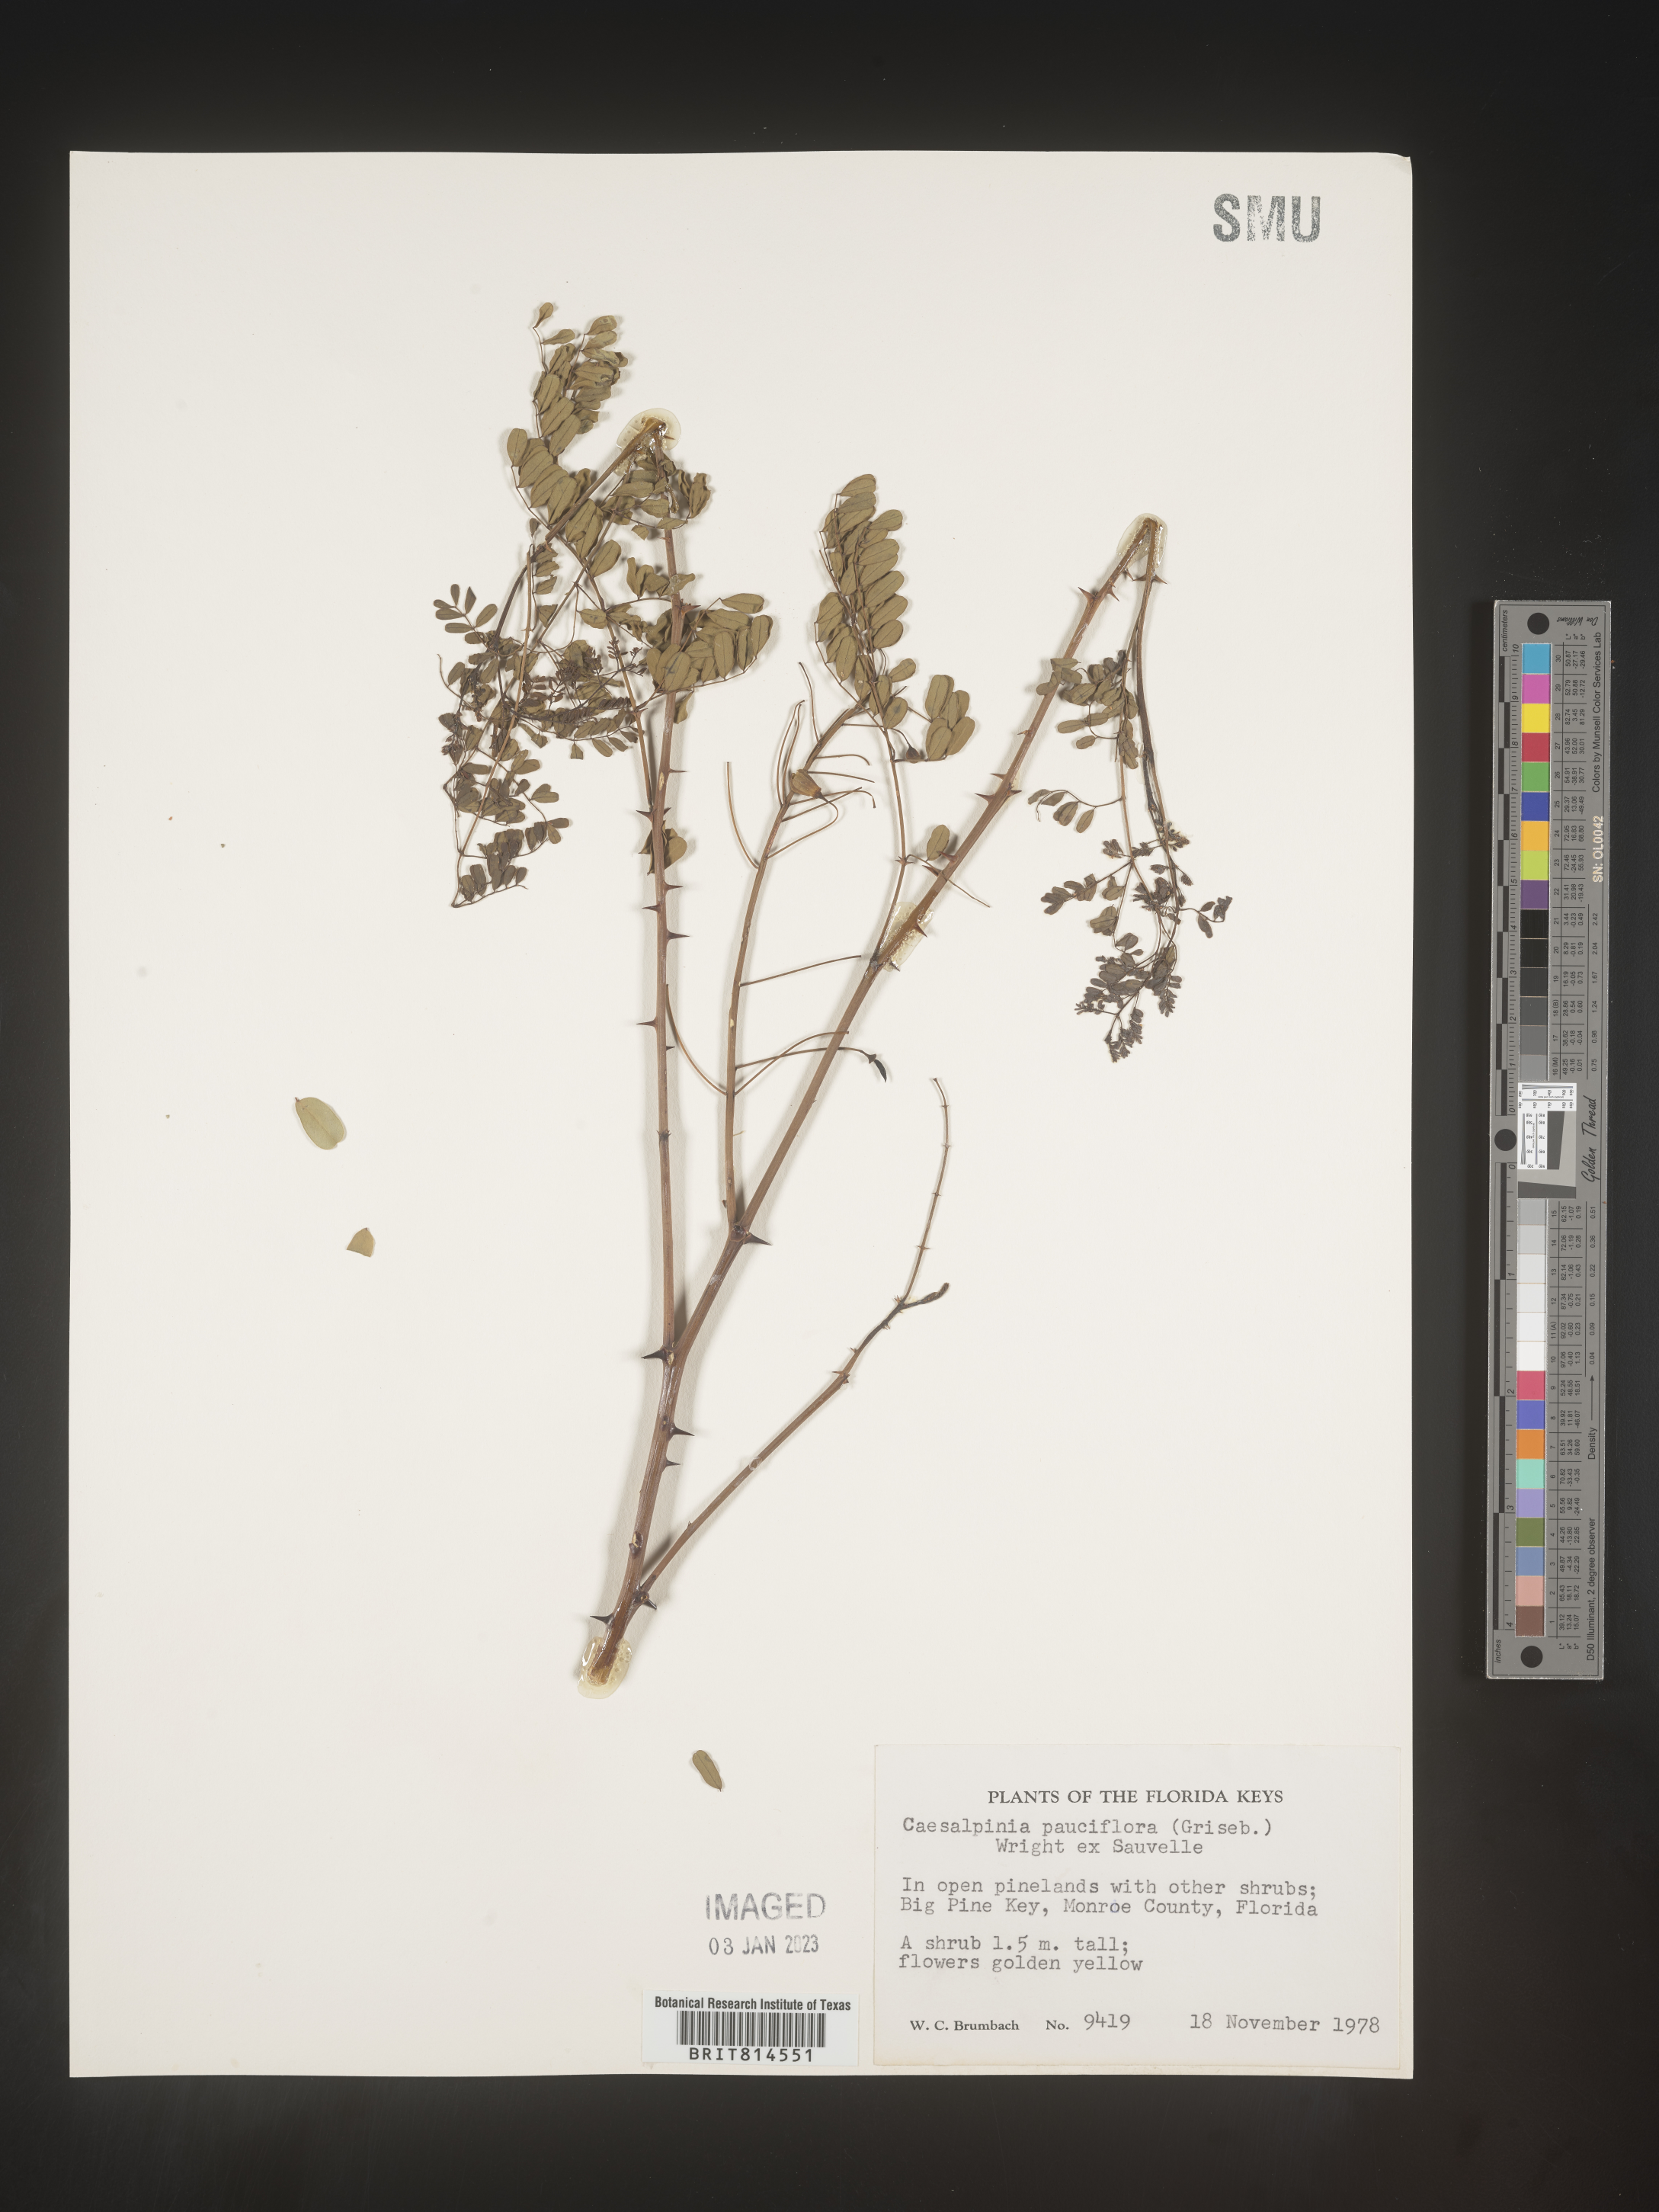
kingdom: Plantae
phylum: Tracheophyta
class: Magnoliopsida
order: Fabales
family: Fabaceae
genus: Caesalpinia
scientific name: Caesalpinia
